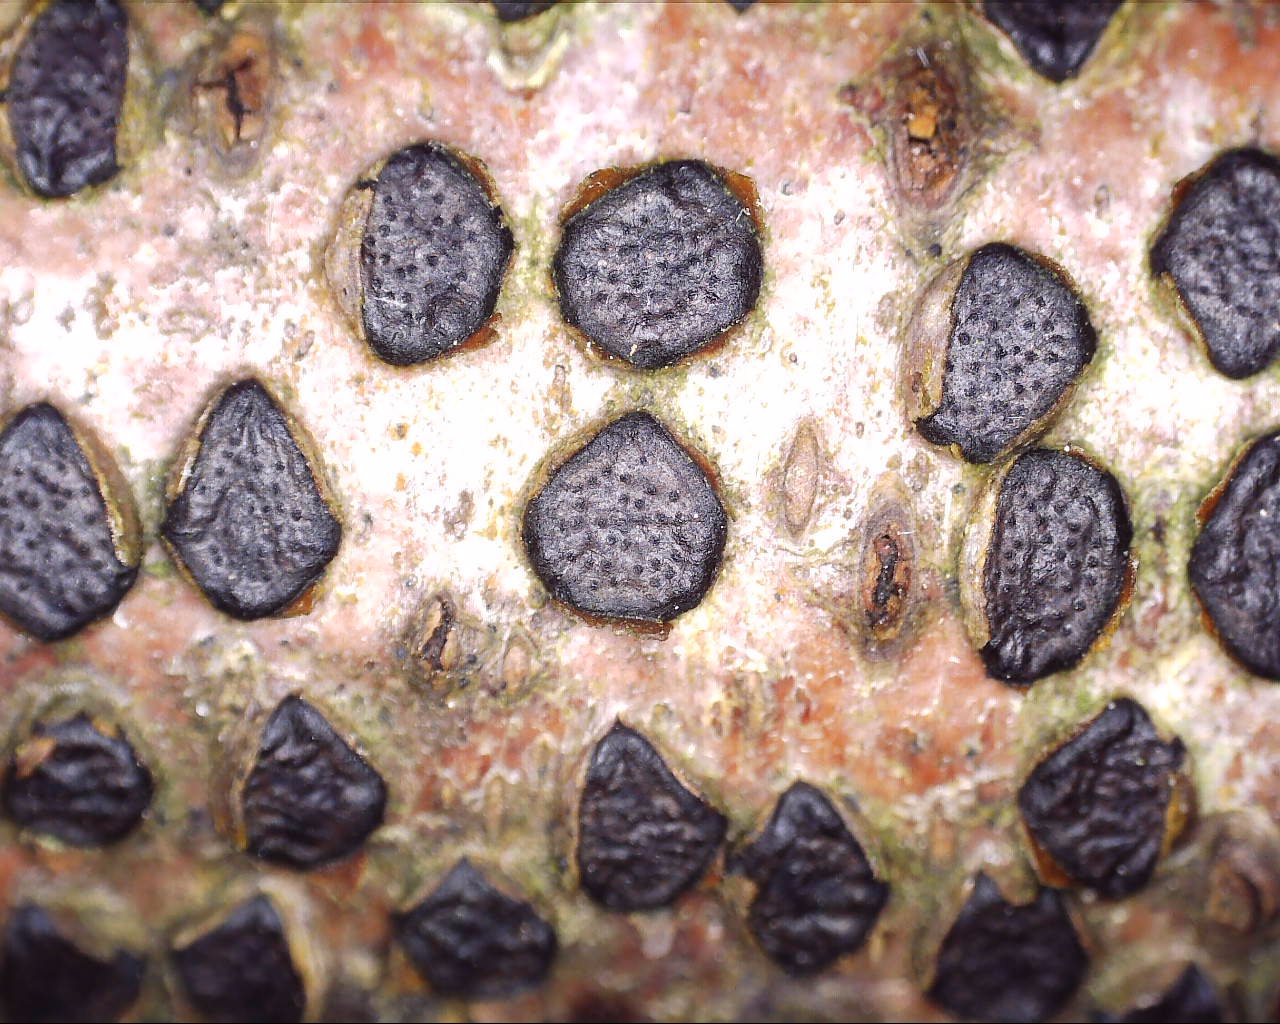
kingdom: Fungi
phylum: Ascomycota
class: Sordariomycetes
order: Xylariales
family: Diatrypaceae
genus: Diatrype
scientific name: Diatrype disciformis
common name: kant-kulskorpe
